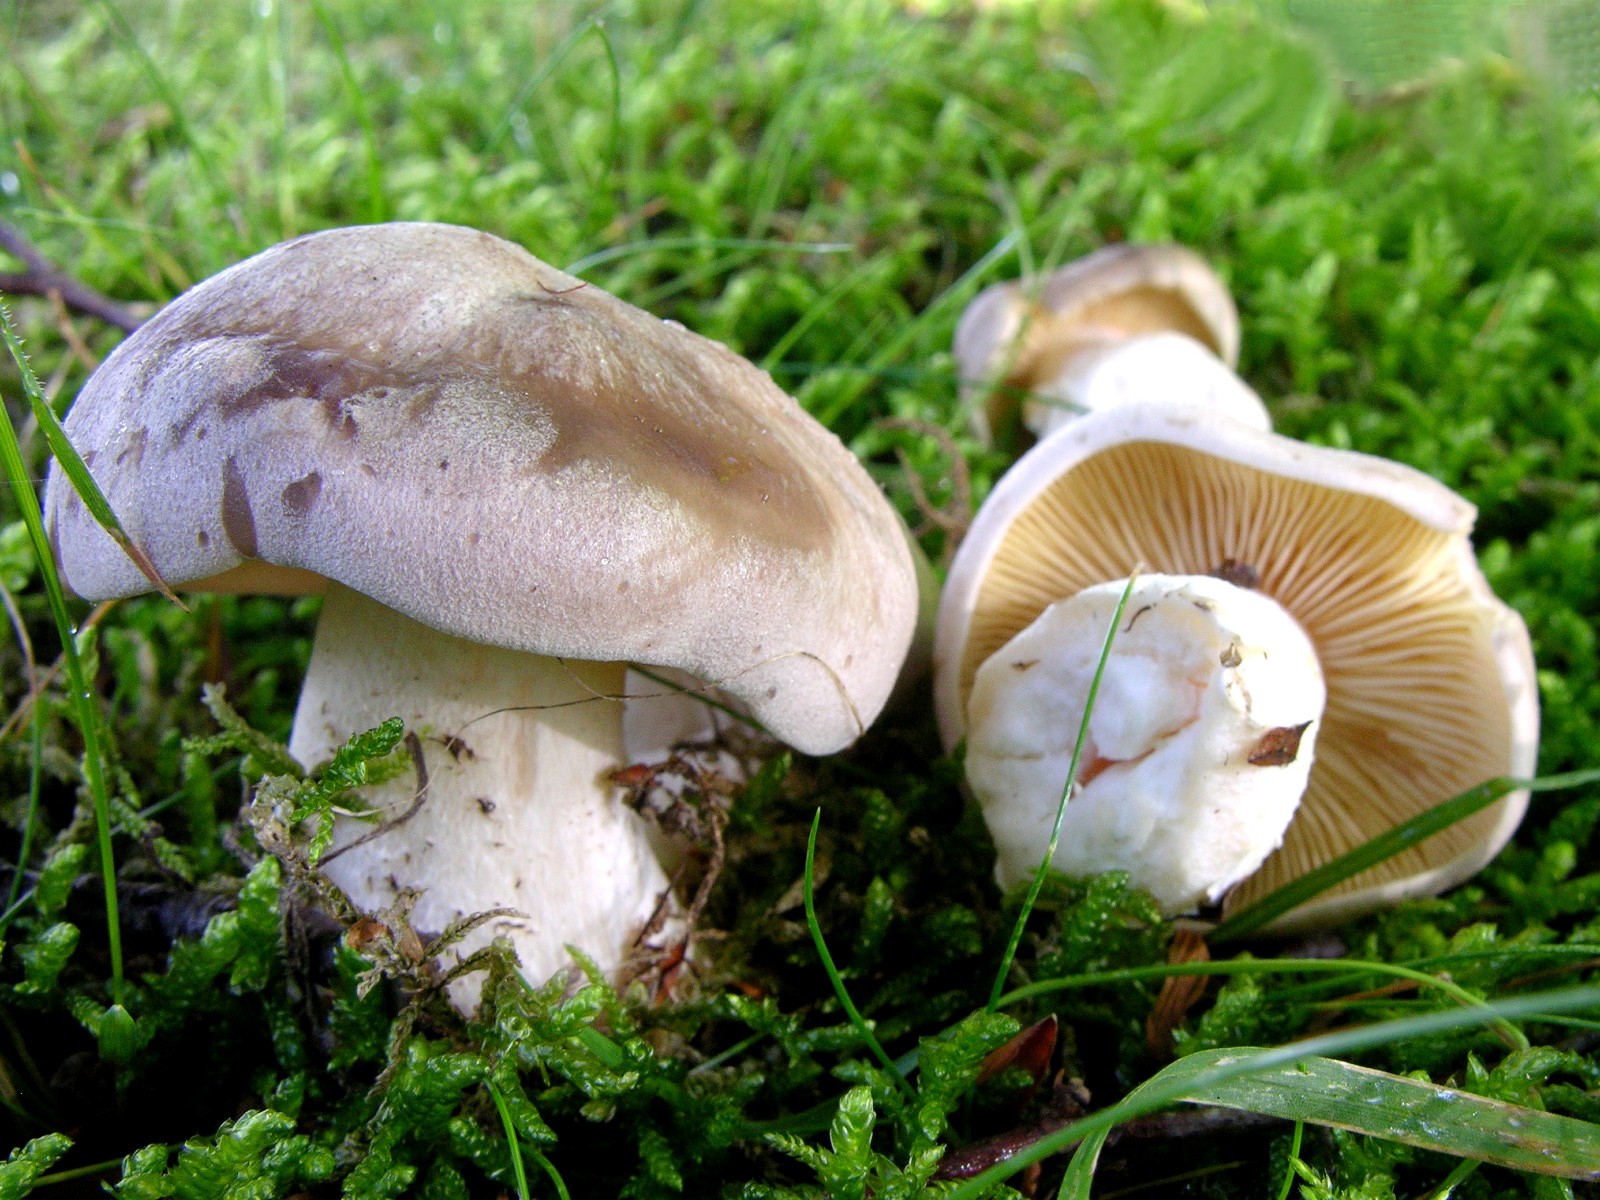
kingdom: Fungi
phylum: Basidiomycota
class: Agaricomycetes
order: Agaricales
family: Entolomataceae
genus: Entoloma
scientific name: Entoloma sinuatum
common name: giftig rødblad
